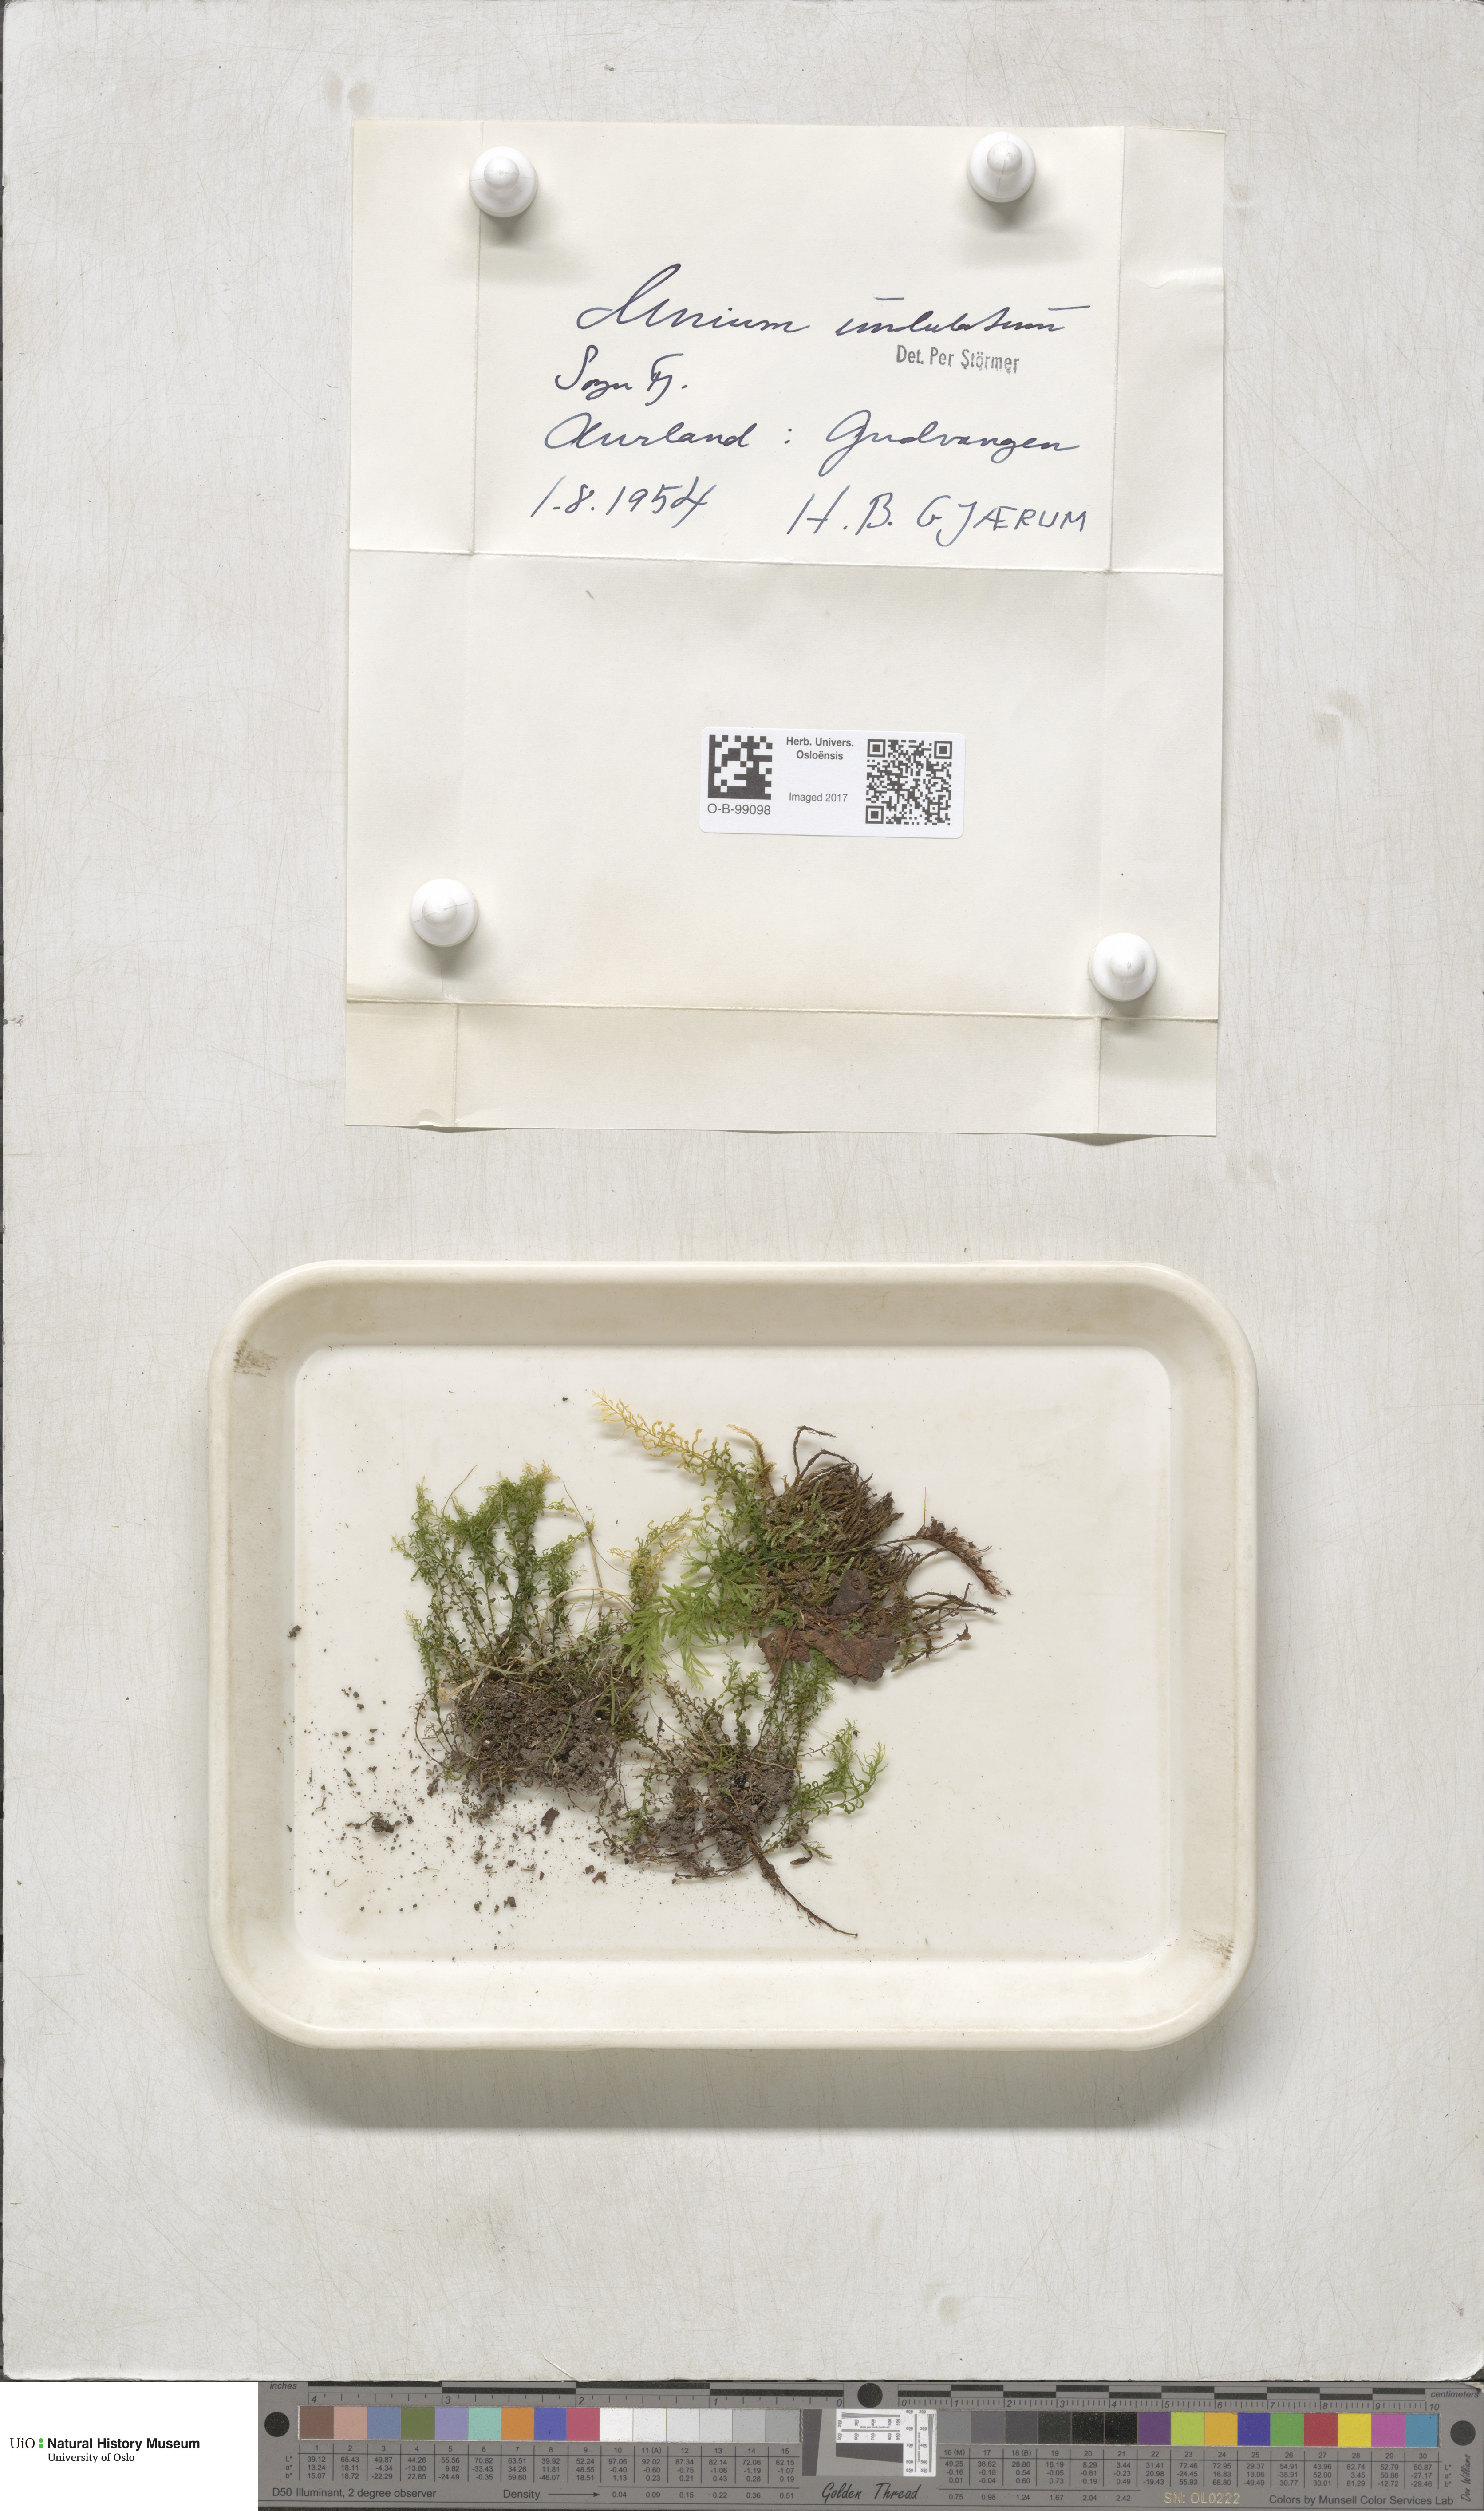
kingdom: Plantae
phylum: Bryophyta
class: Bryopsida
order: Bryales
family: Mniaceae
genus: Plagiomnium
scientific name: Plagiomnium undulatum
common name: Hart's-tongue thyme-moss
